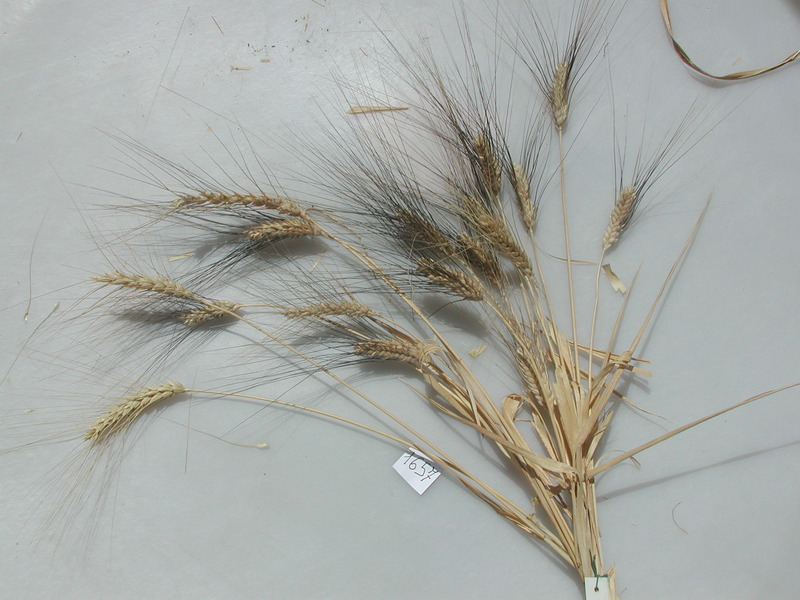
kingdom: Plantae
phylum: Tracheophyta
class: Liliopsida
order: Poales
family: Poaceae
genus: Triticum
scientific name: Triticum turgidum
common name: Wheat
